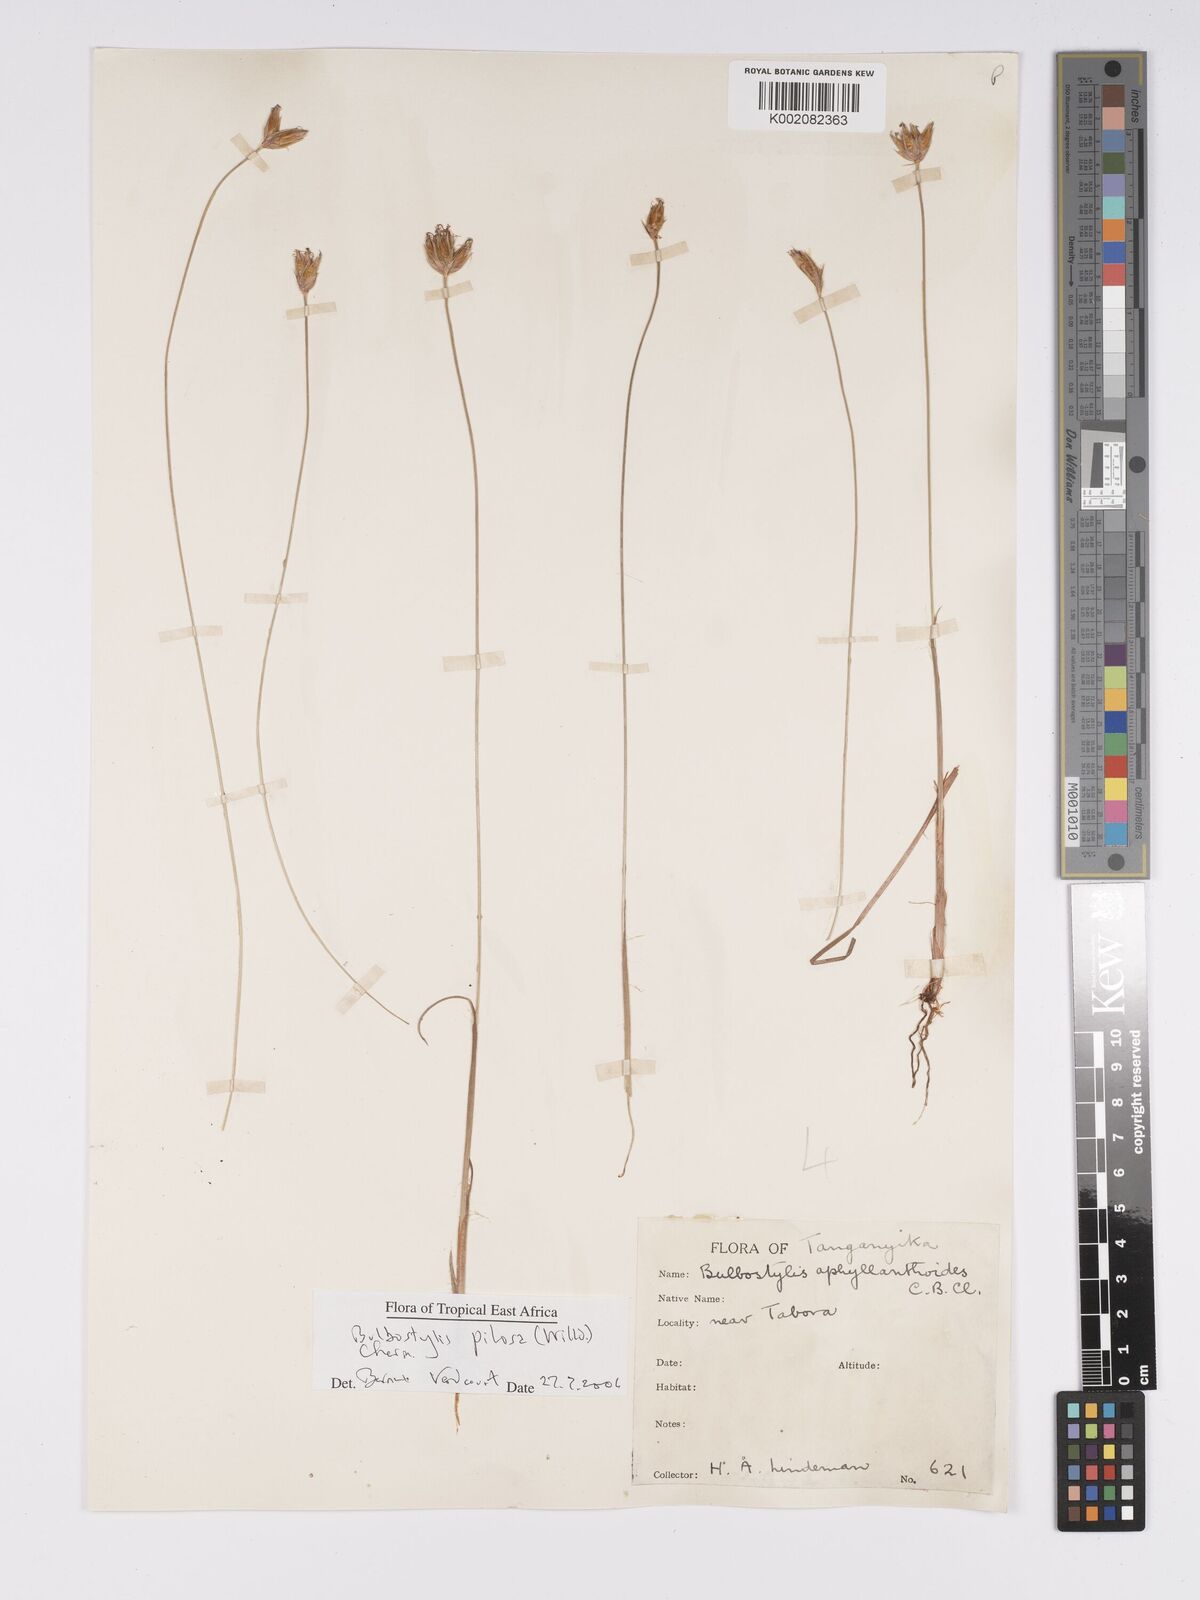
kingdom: Plantae
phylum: Tracheophyta
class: Liliopsida
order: Poales
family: Cyperaceae
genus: Bulbostylis
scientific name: Bulbostylis pilosa
